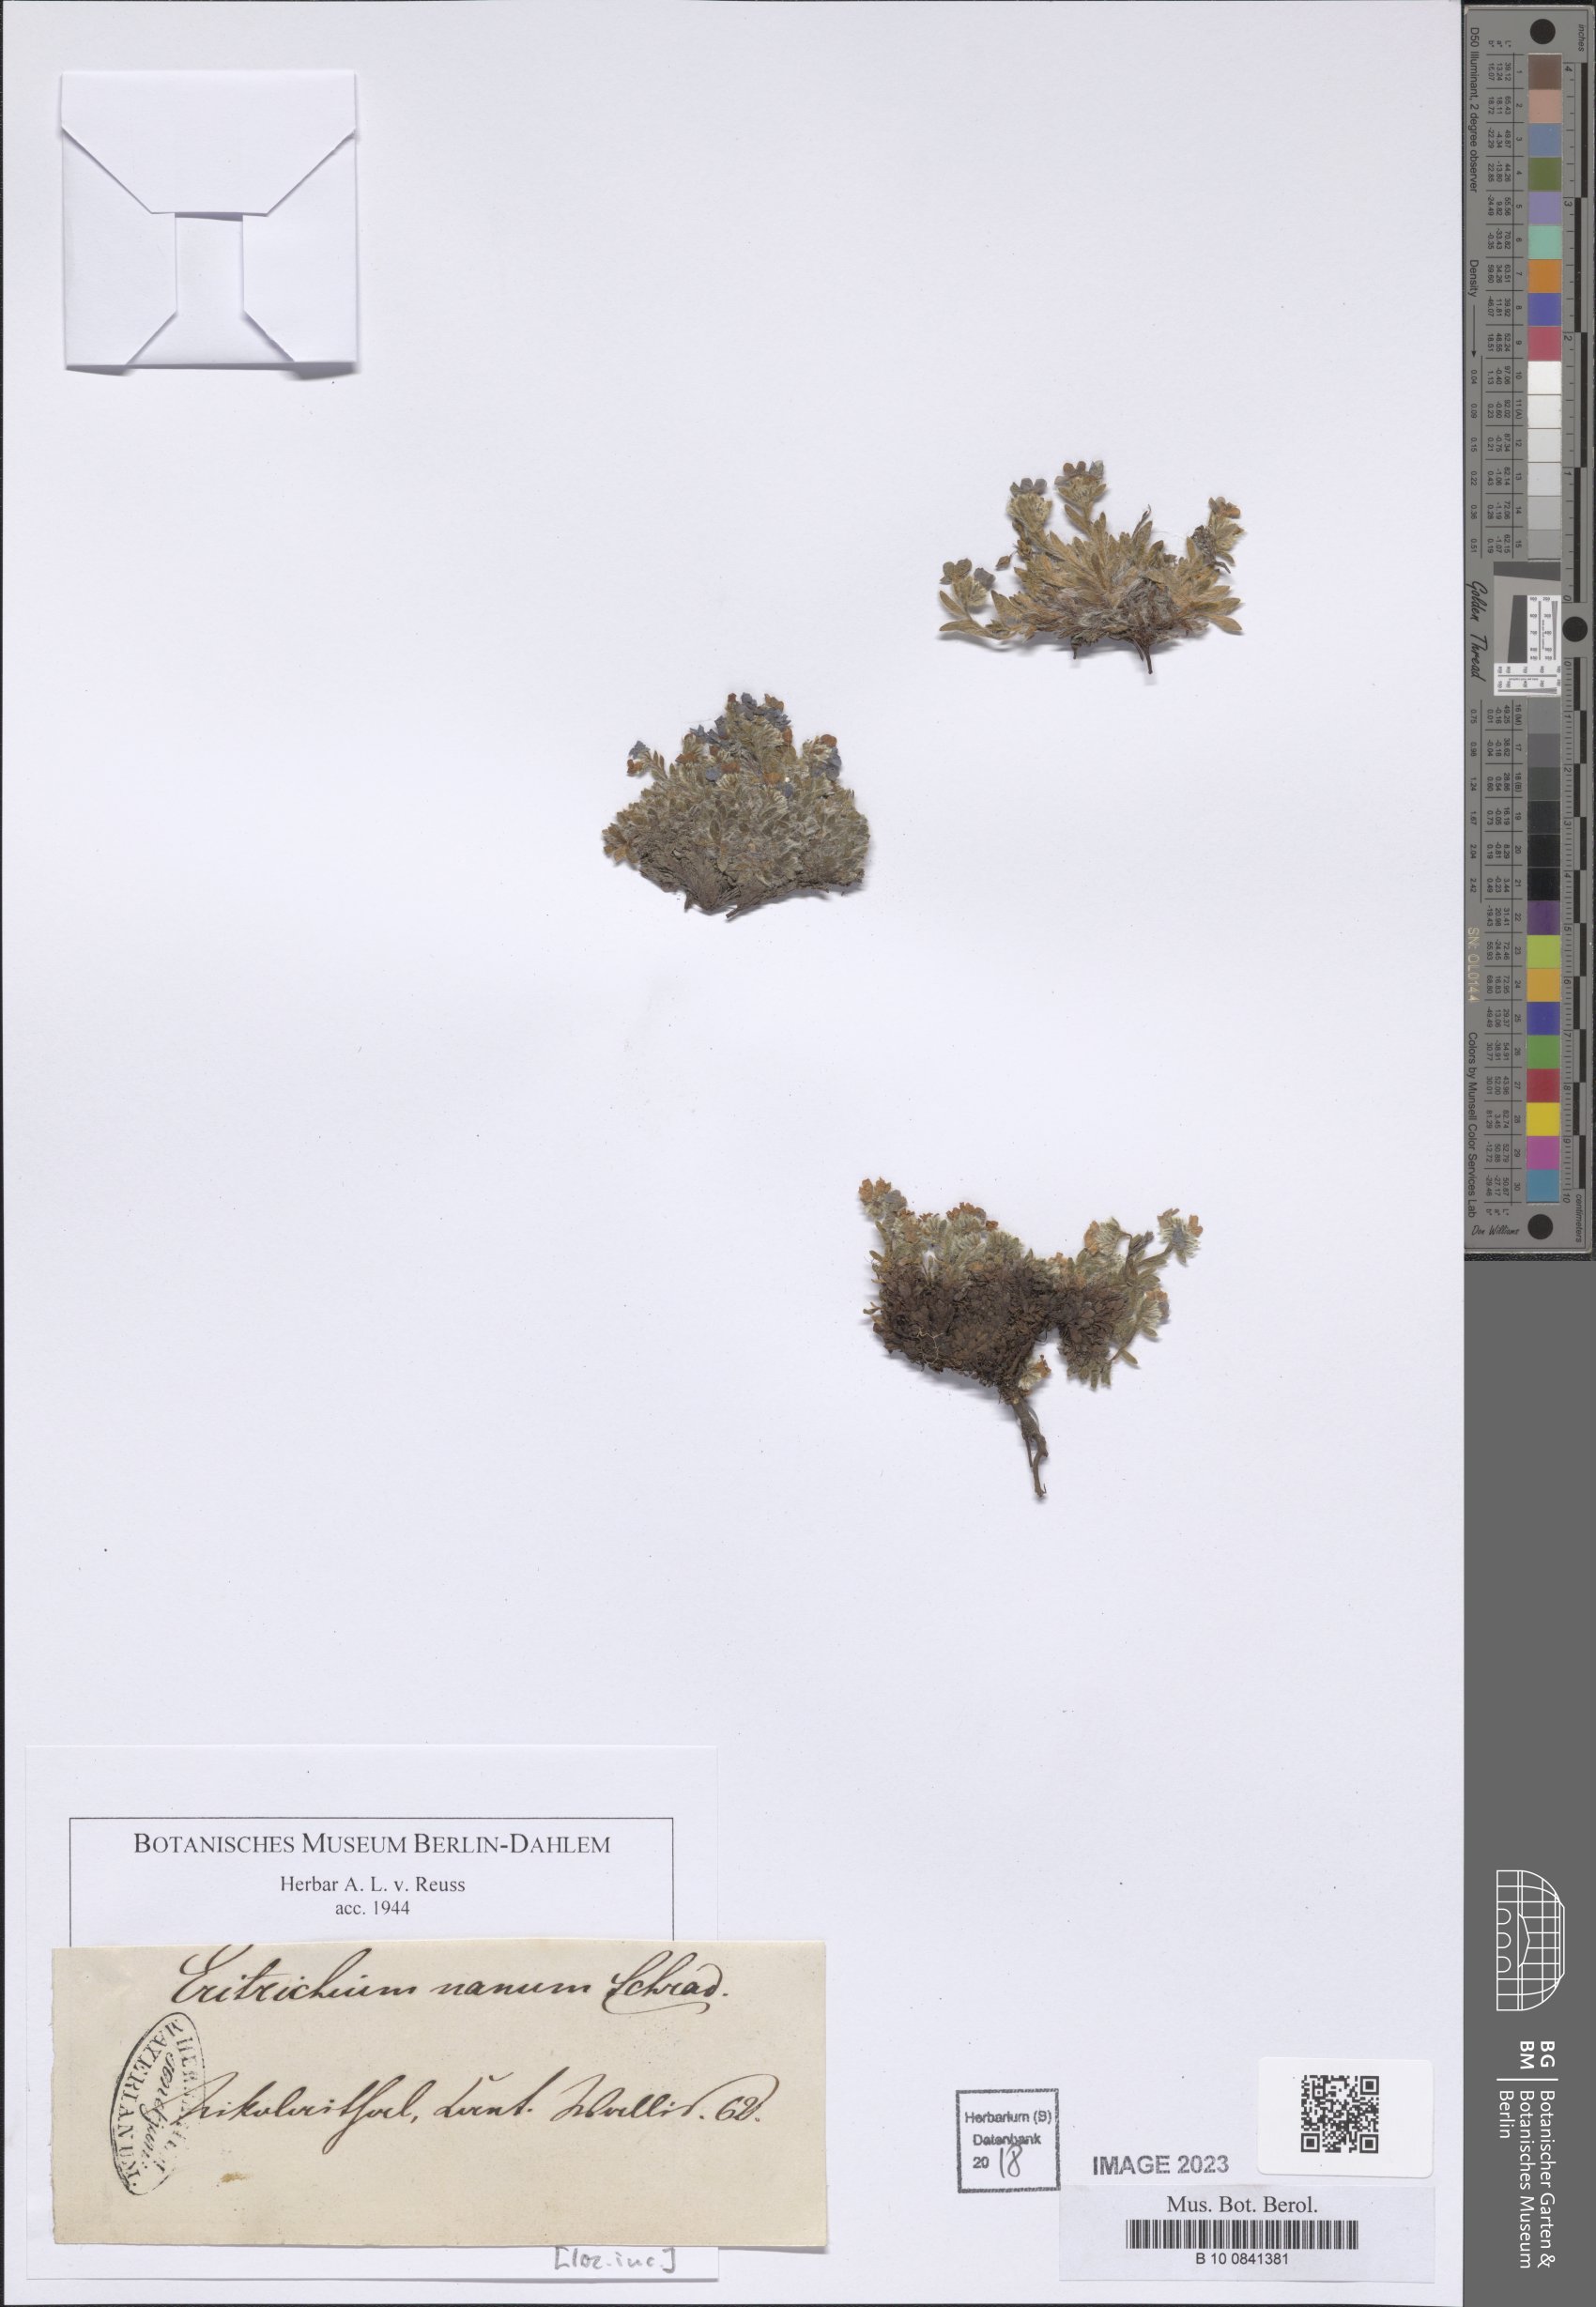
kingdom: Plantae
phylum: Tracheophyta
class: Magnoliopsida
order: Boraginales
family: Boraginaceae
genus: Eritrichium
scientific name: Eritrichium nanum
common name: King-of-the-alps
